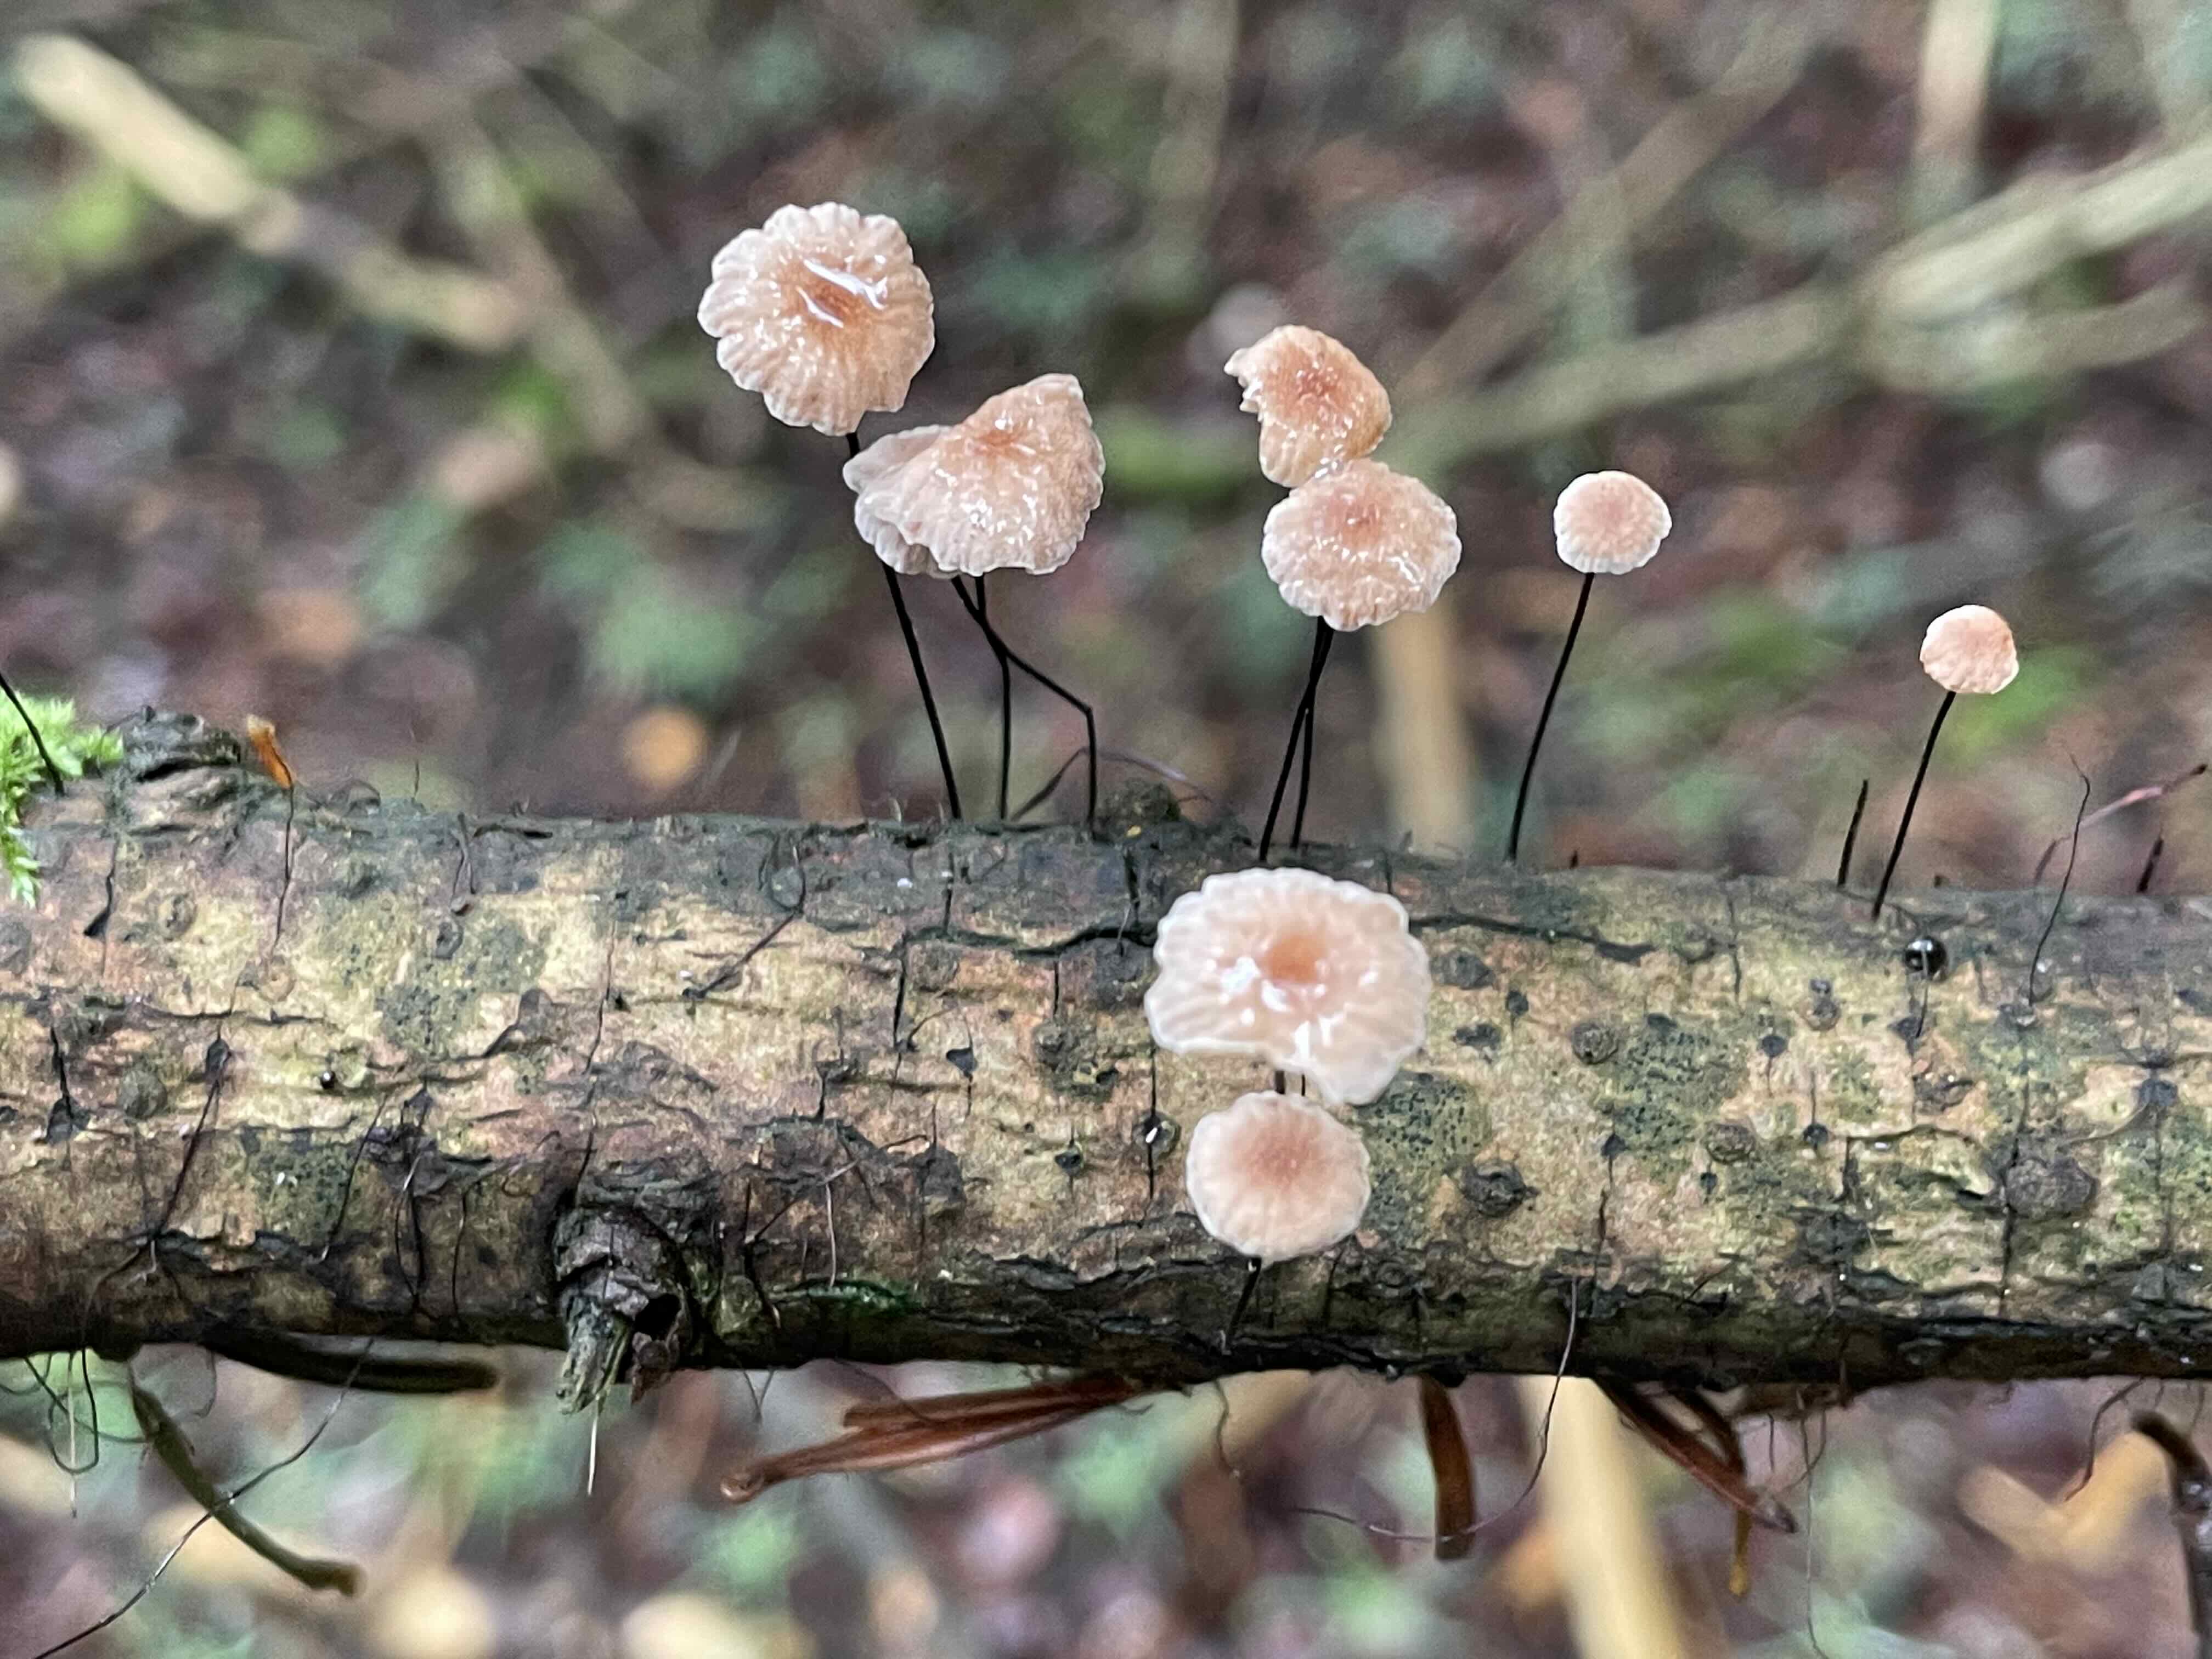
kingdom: Fungi
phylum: Basidiomycota
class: Agaricomycetes
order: Agaricales
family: Omphalotaceae
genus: Gymnopus
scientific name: Gymnopus androsaceus
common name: trådstokket fladhat
